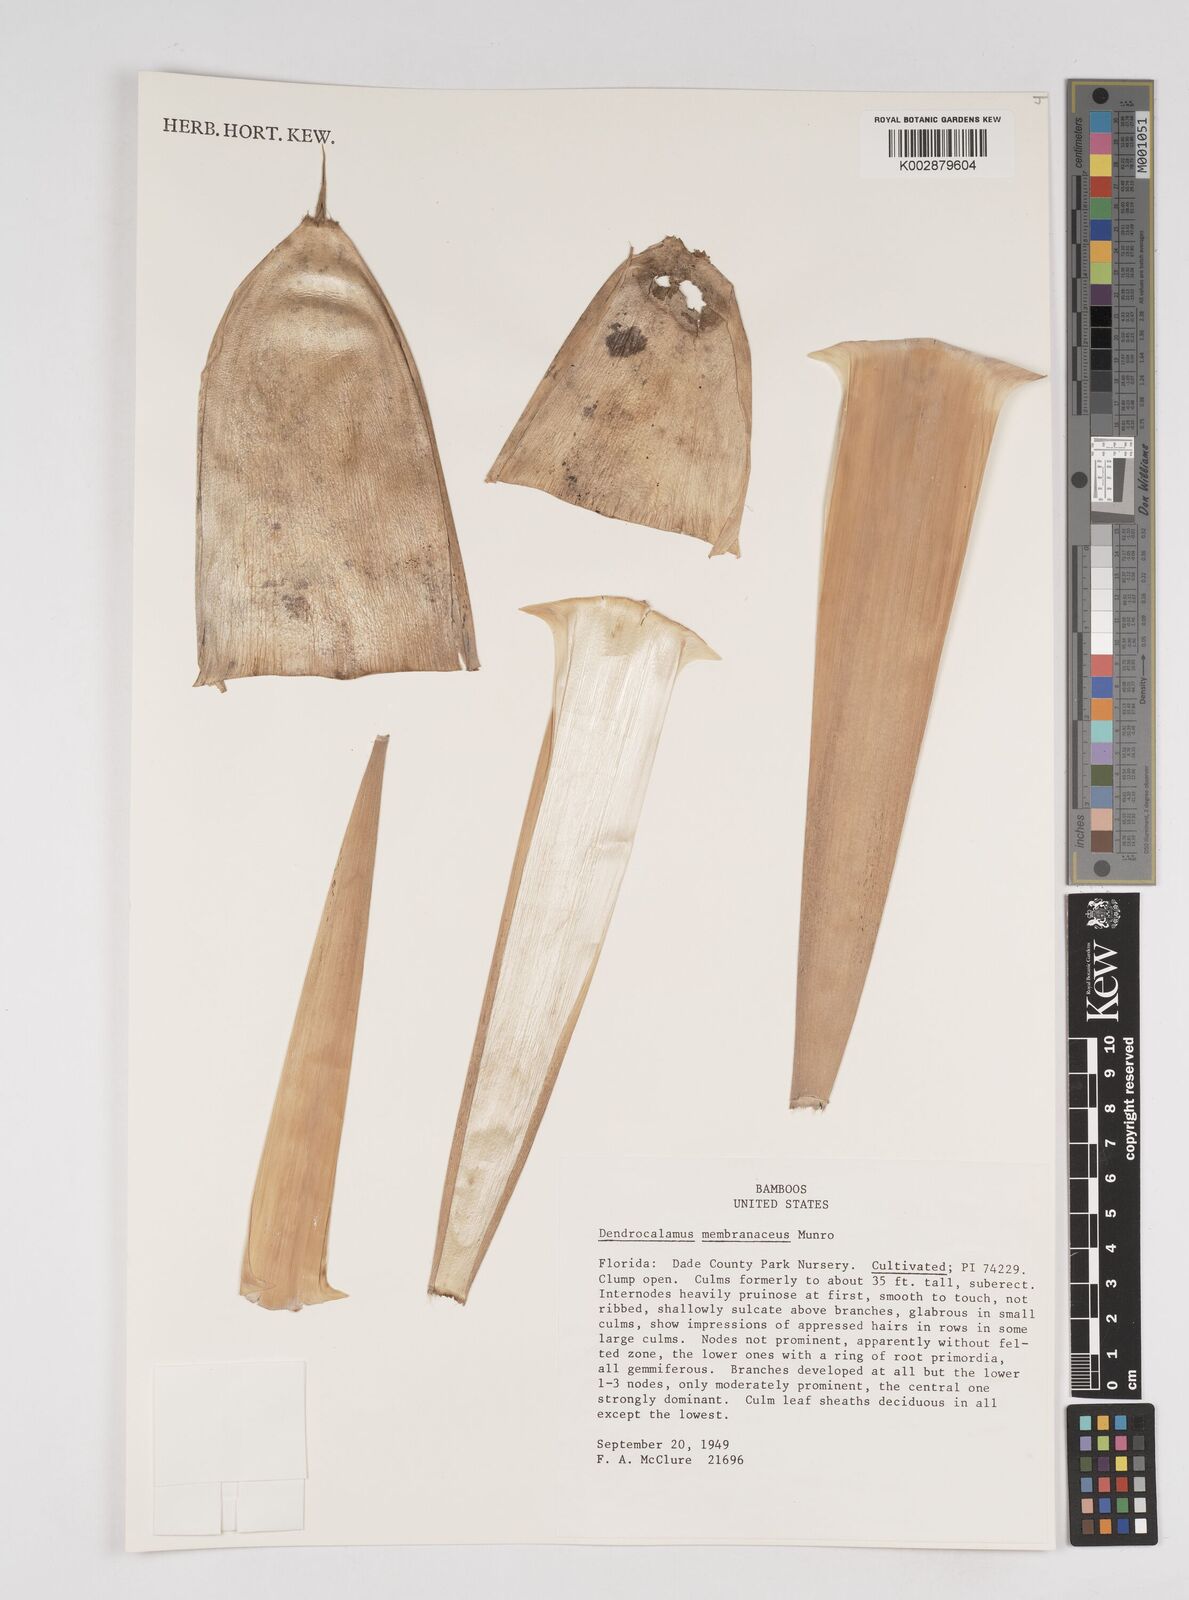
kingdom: Plantae
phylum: Tracheophyta
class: Liliopsida
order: Poales
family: Poaceae
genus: Dendrocalamus
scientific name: Dendrocalamus membranaceus
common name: White bamboo
